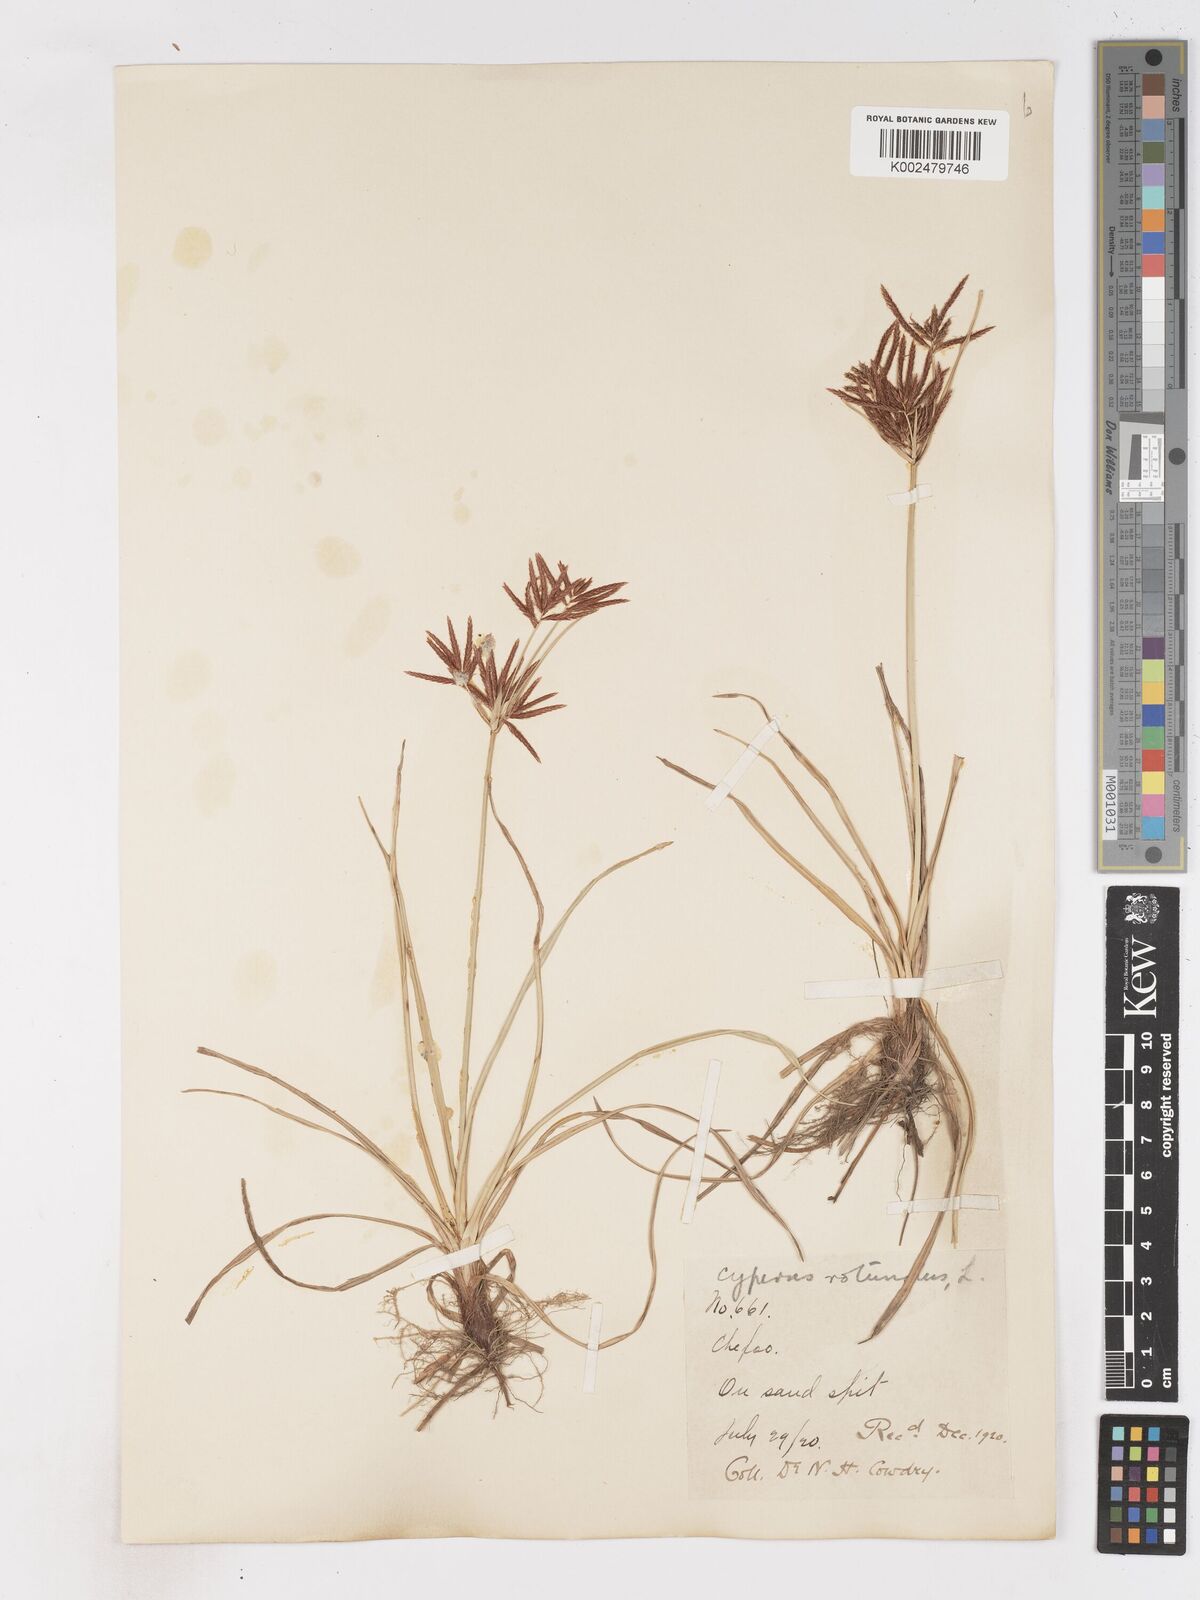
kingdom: Plantae
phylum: Tracheophyta
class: Liliopsida
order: Poales
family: Cyperaceae
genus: Cyperus
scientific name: Cyperus rotundus
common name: Nutgrass
